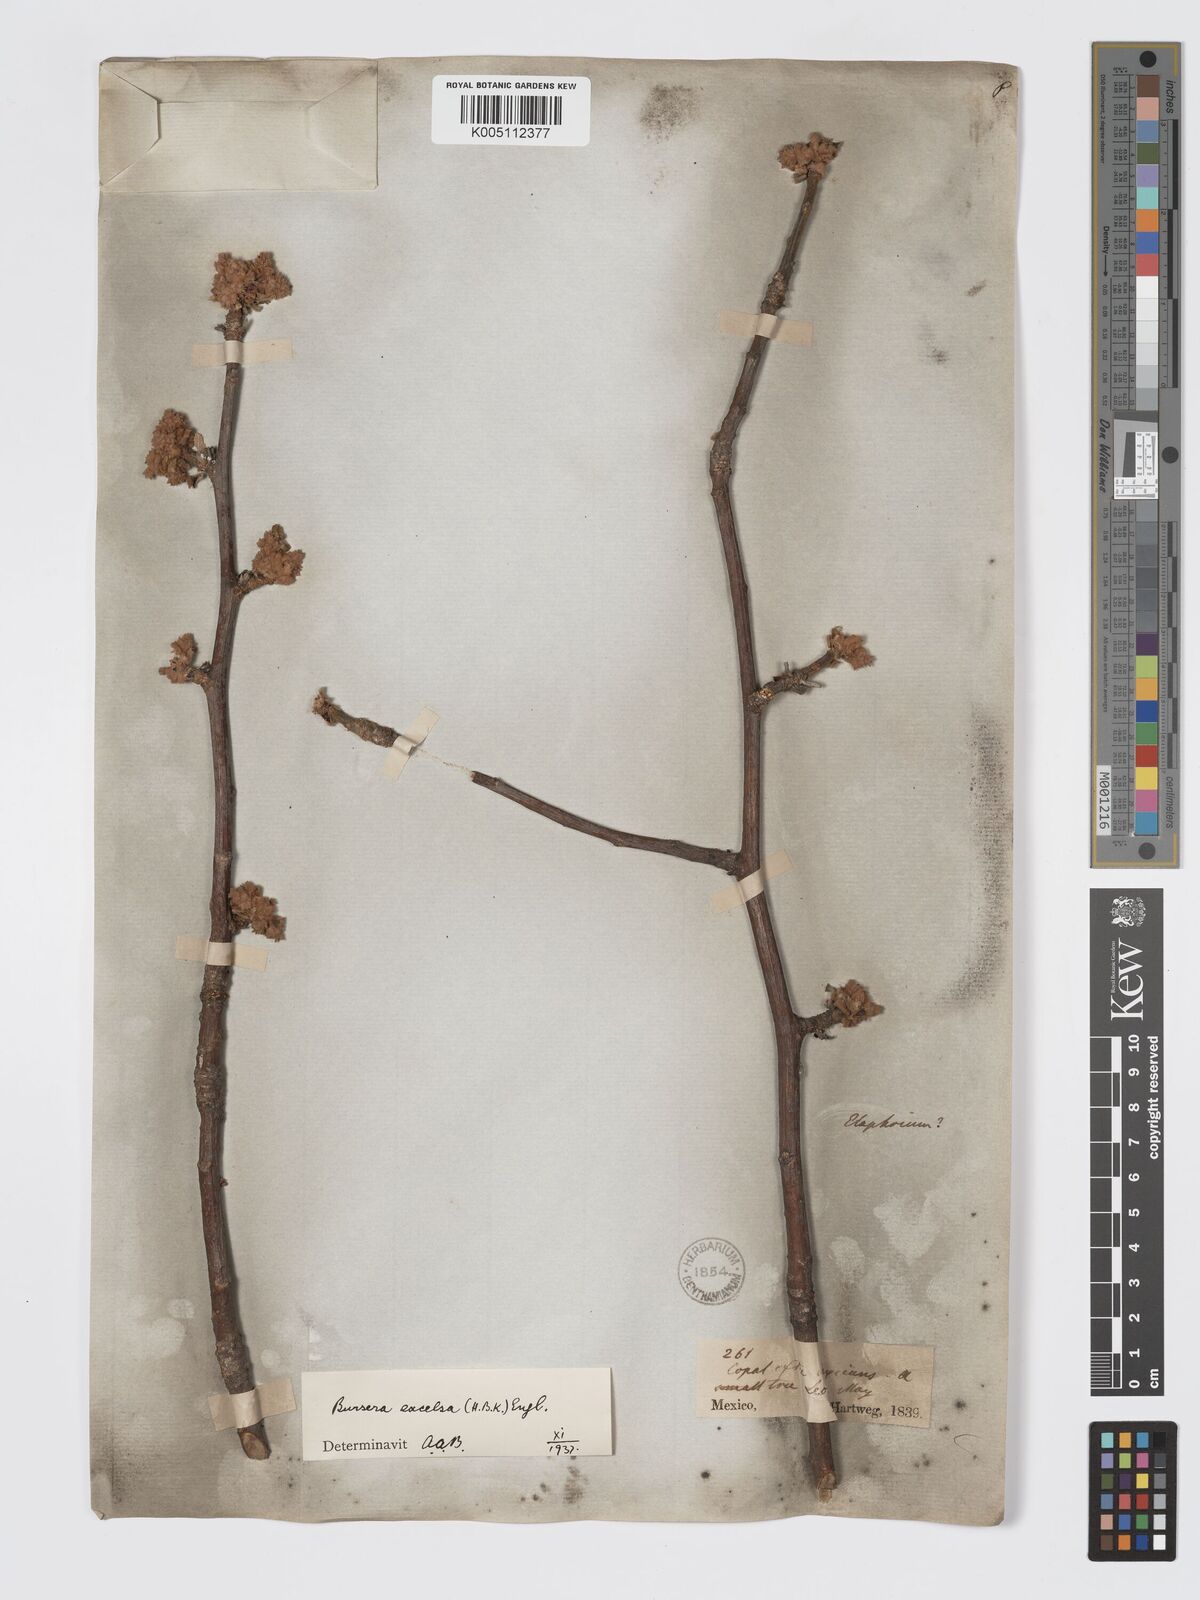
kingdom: Plantae
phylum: Tracheophyta
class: Magnoliopsida
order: Sapindales
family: Burseraceae
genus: Bursera
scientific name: Bursera excelsa
